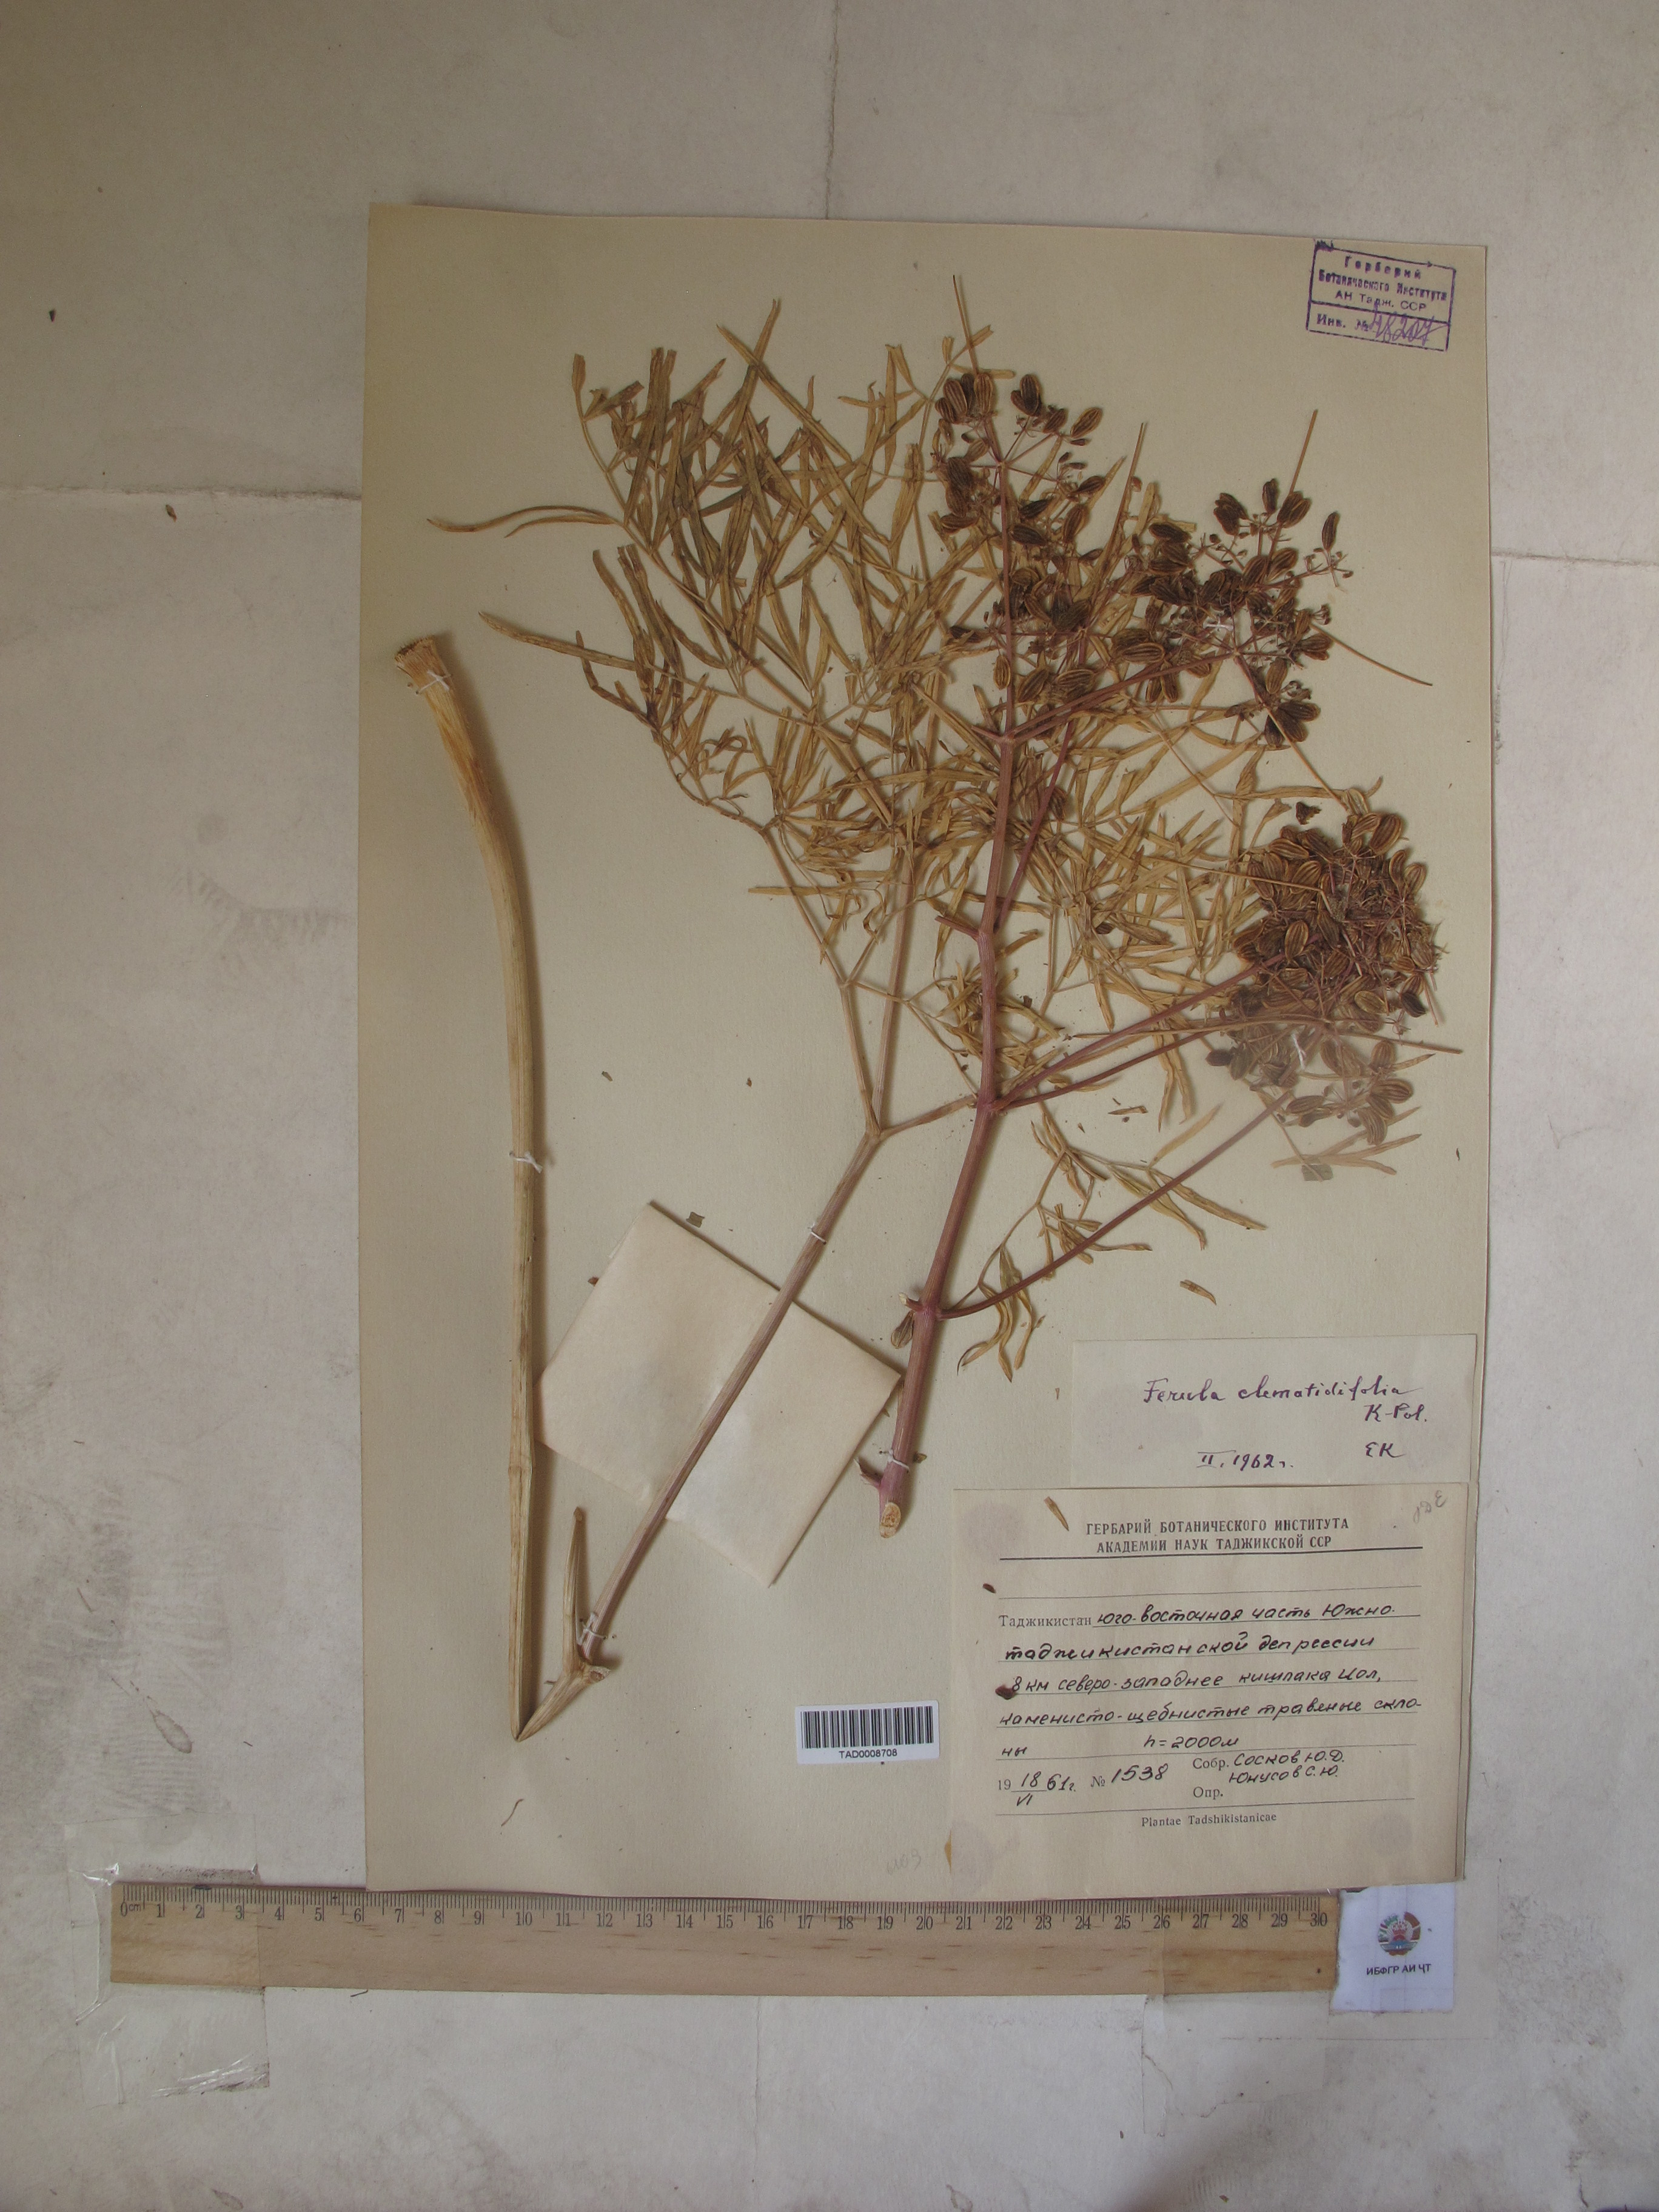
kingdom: Plantae
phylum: Tracheophyta
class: Magnoliopsida
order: Apiales
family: Apiaceae
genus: Ferula
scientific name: Ferula clematidifolia
